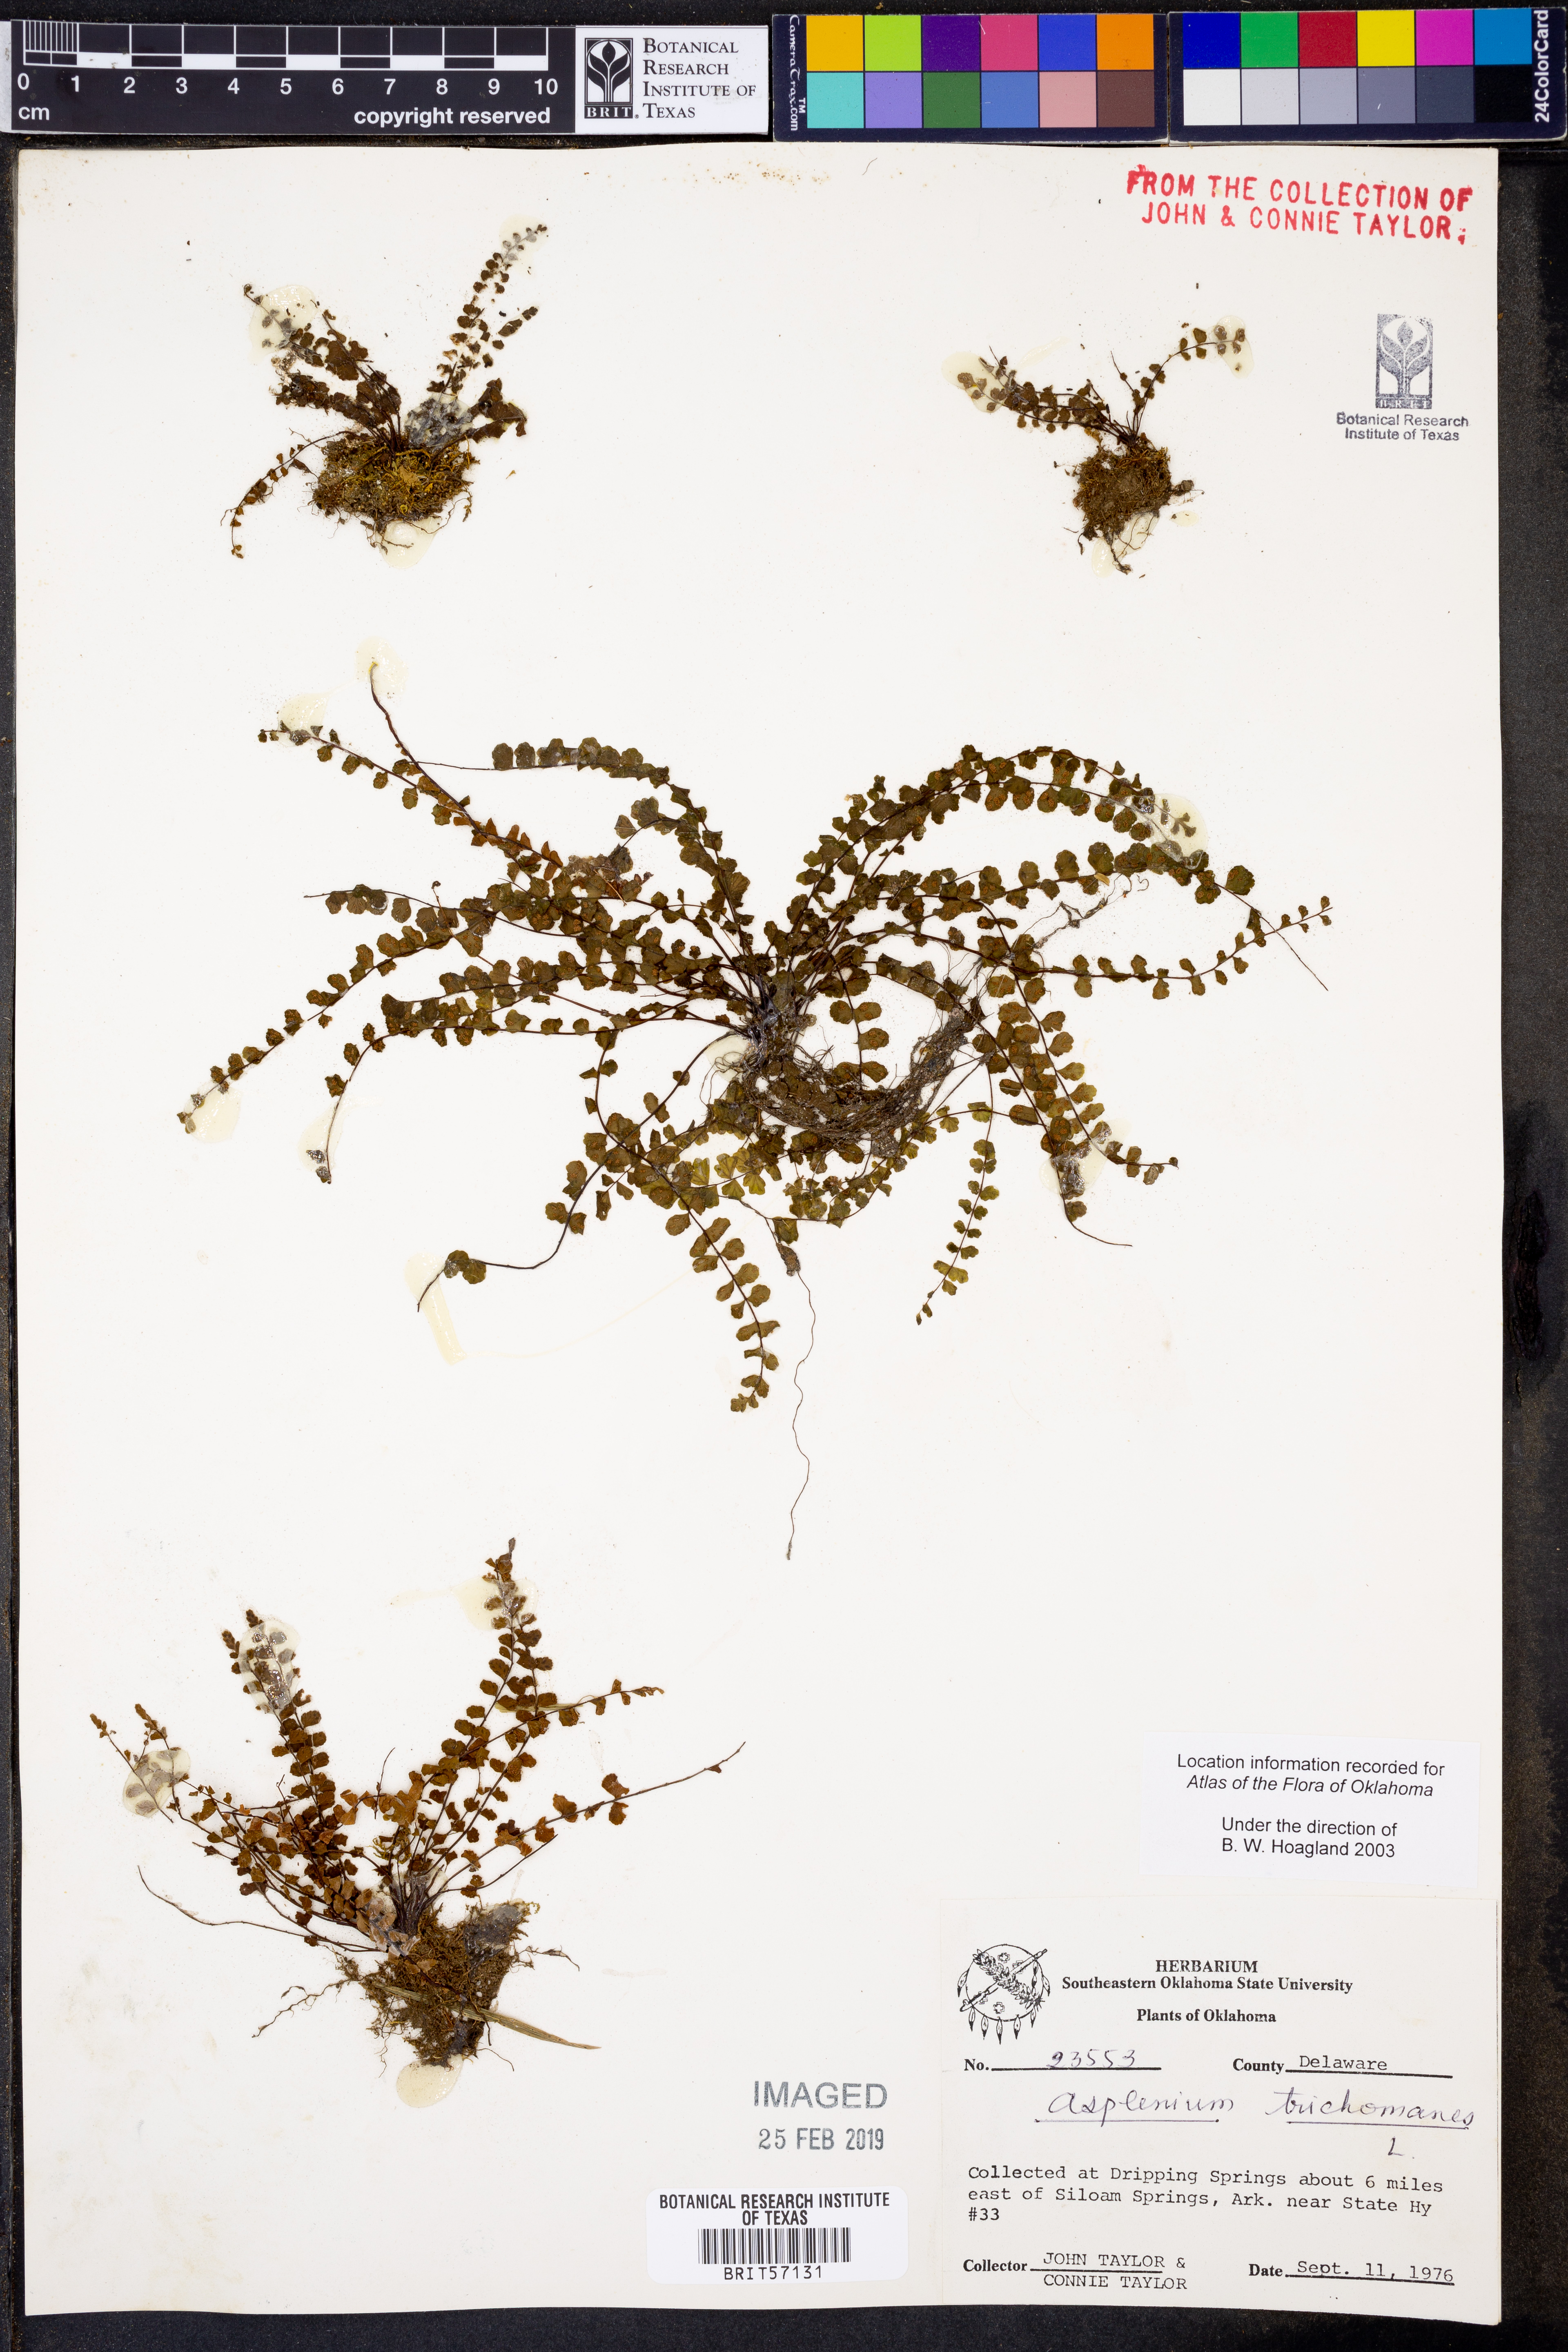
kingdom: Plantae
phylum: Tracheophyta
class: Polypodiopsida
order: Polypodiales
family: Aspleniaceae
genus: Asplenium
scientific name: Asplenium trichomanes
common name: Maidenhair spleenwort
